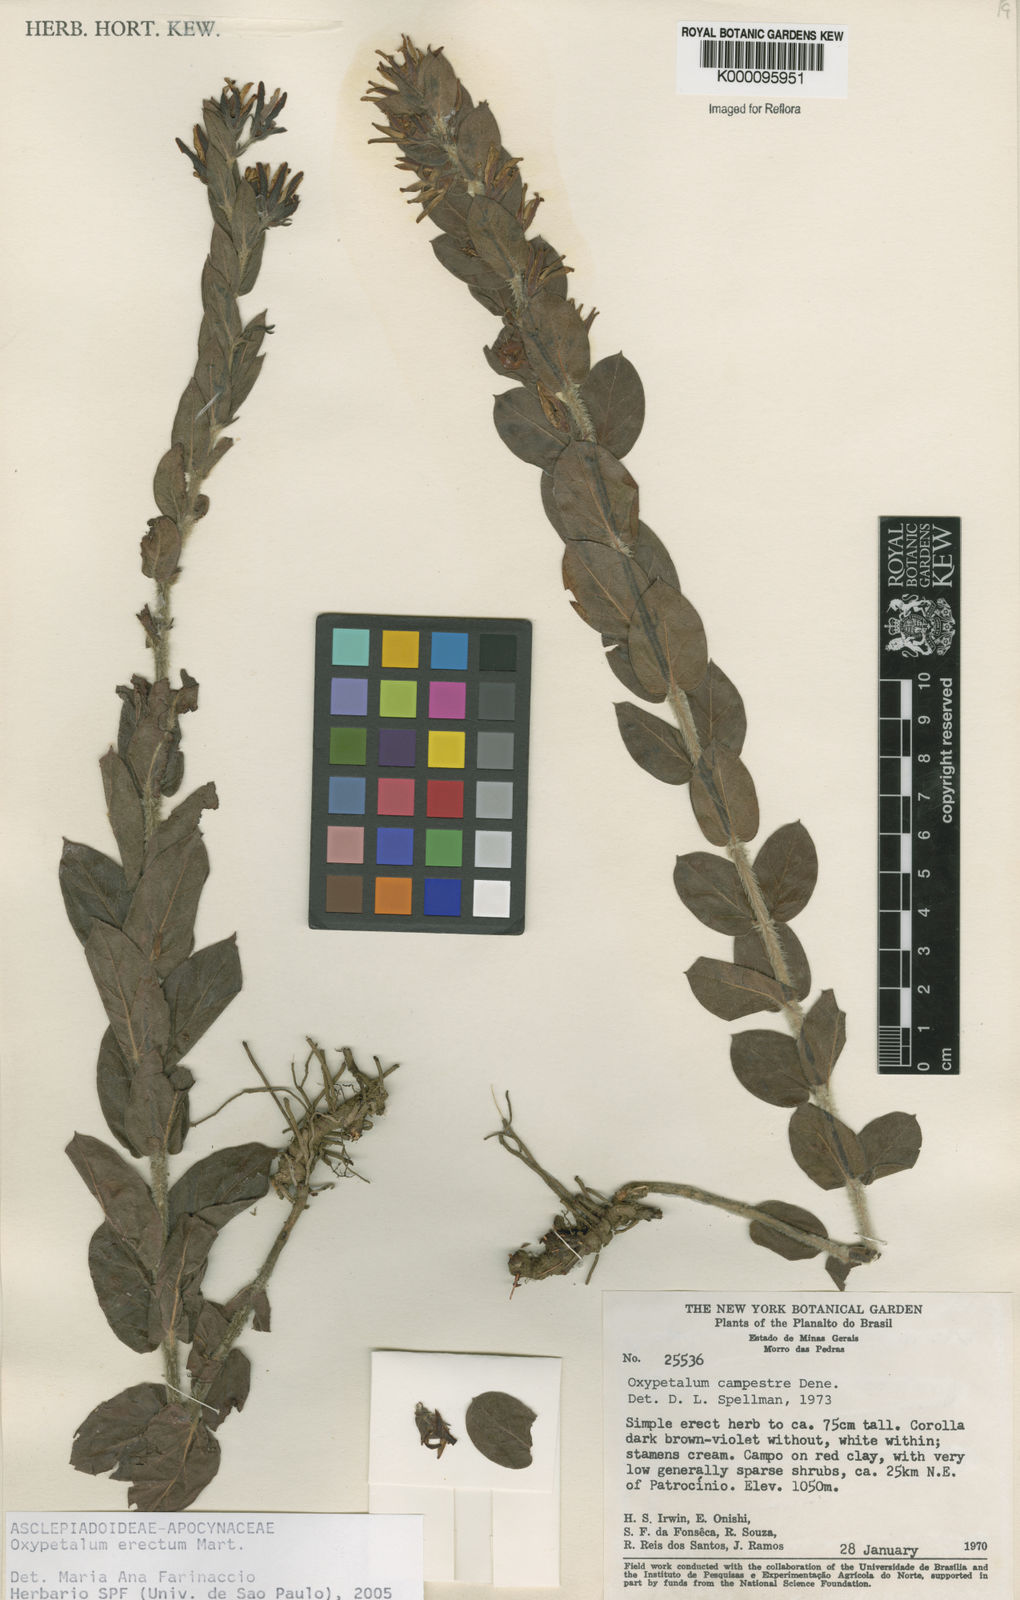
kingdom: Plantae
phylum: Tracheophyta
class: Magnoliopsida
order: Gentianales
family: Apocynaceae
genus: Oxypetalum
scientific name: Oxypetalum erectum
